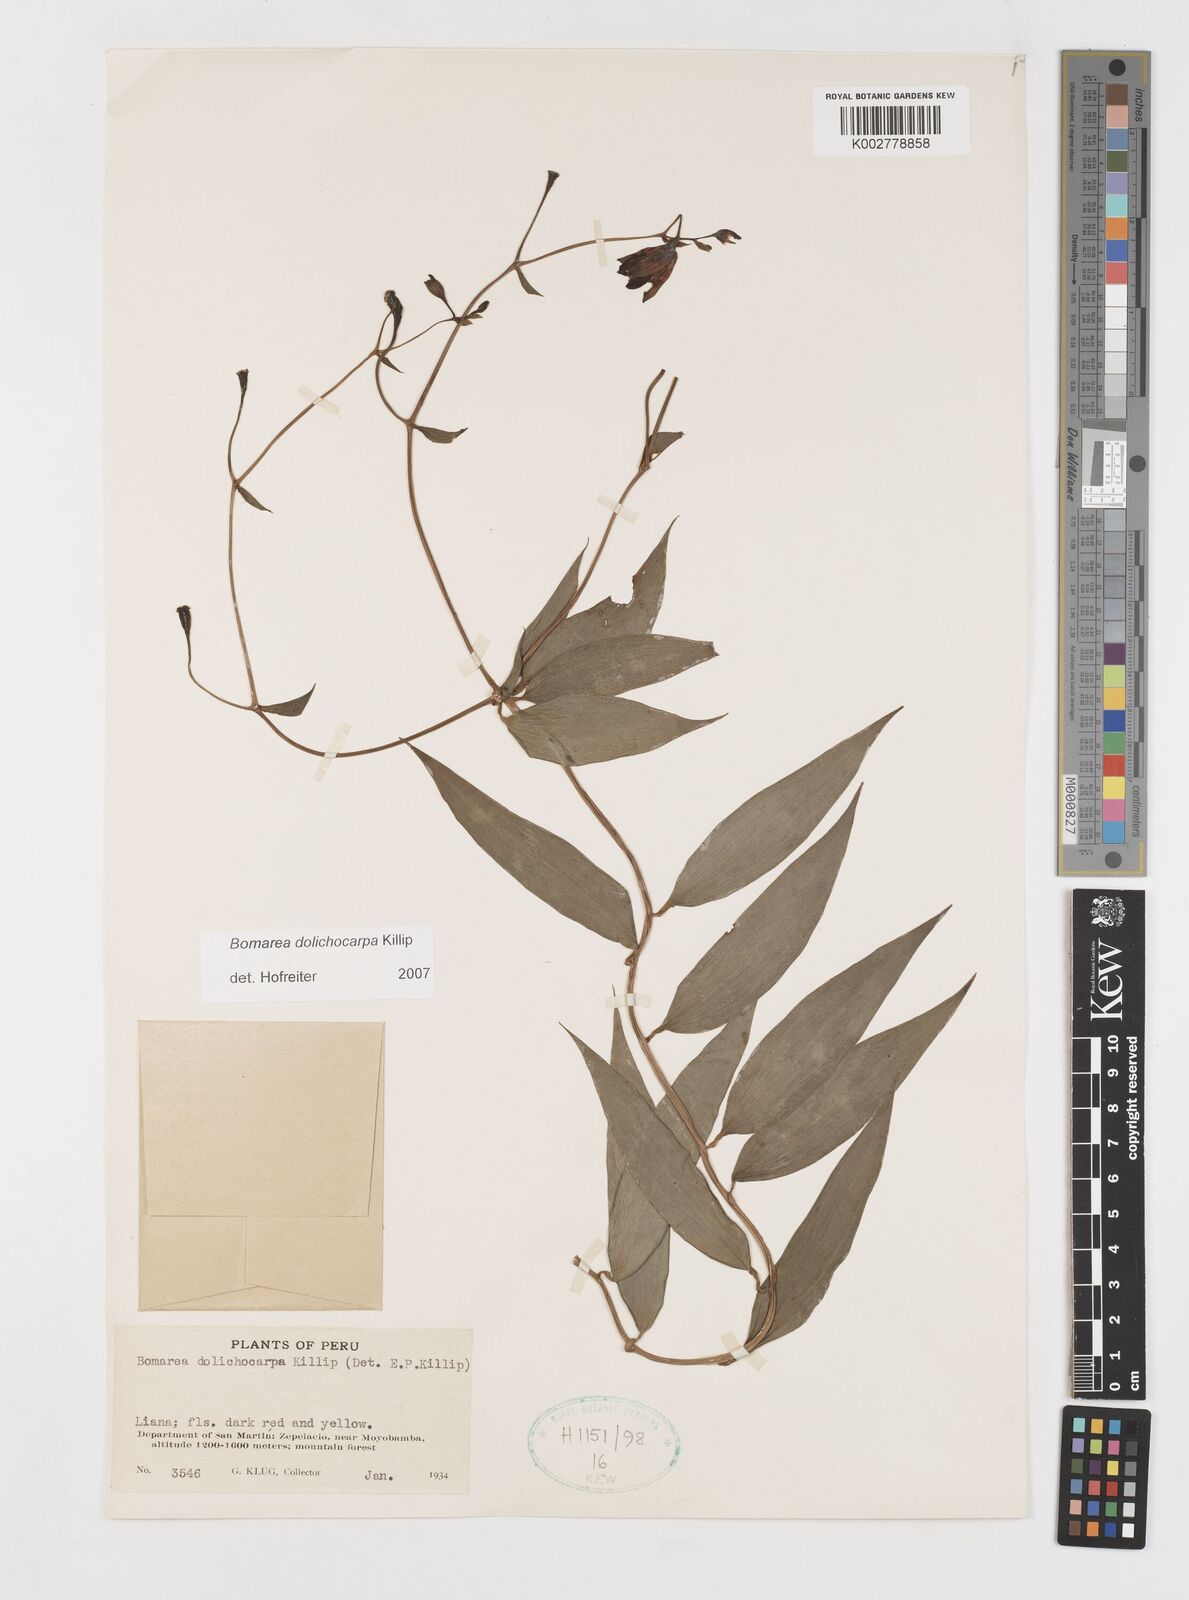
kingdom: Plantae
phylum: Tracheophyta
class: Liliopsida
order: Liliales
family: Alstroemeriaceae
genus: Bomarea
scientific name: Bomarea dolichocarpa
